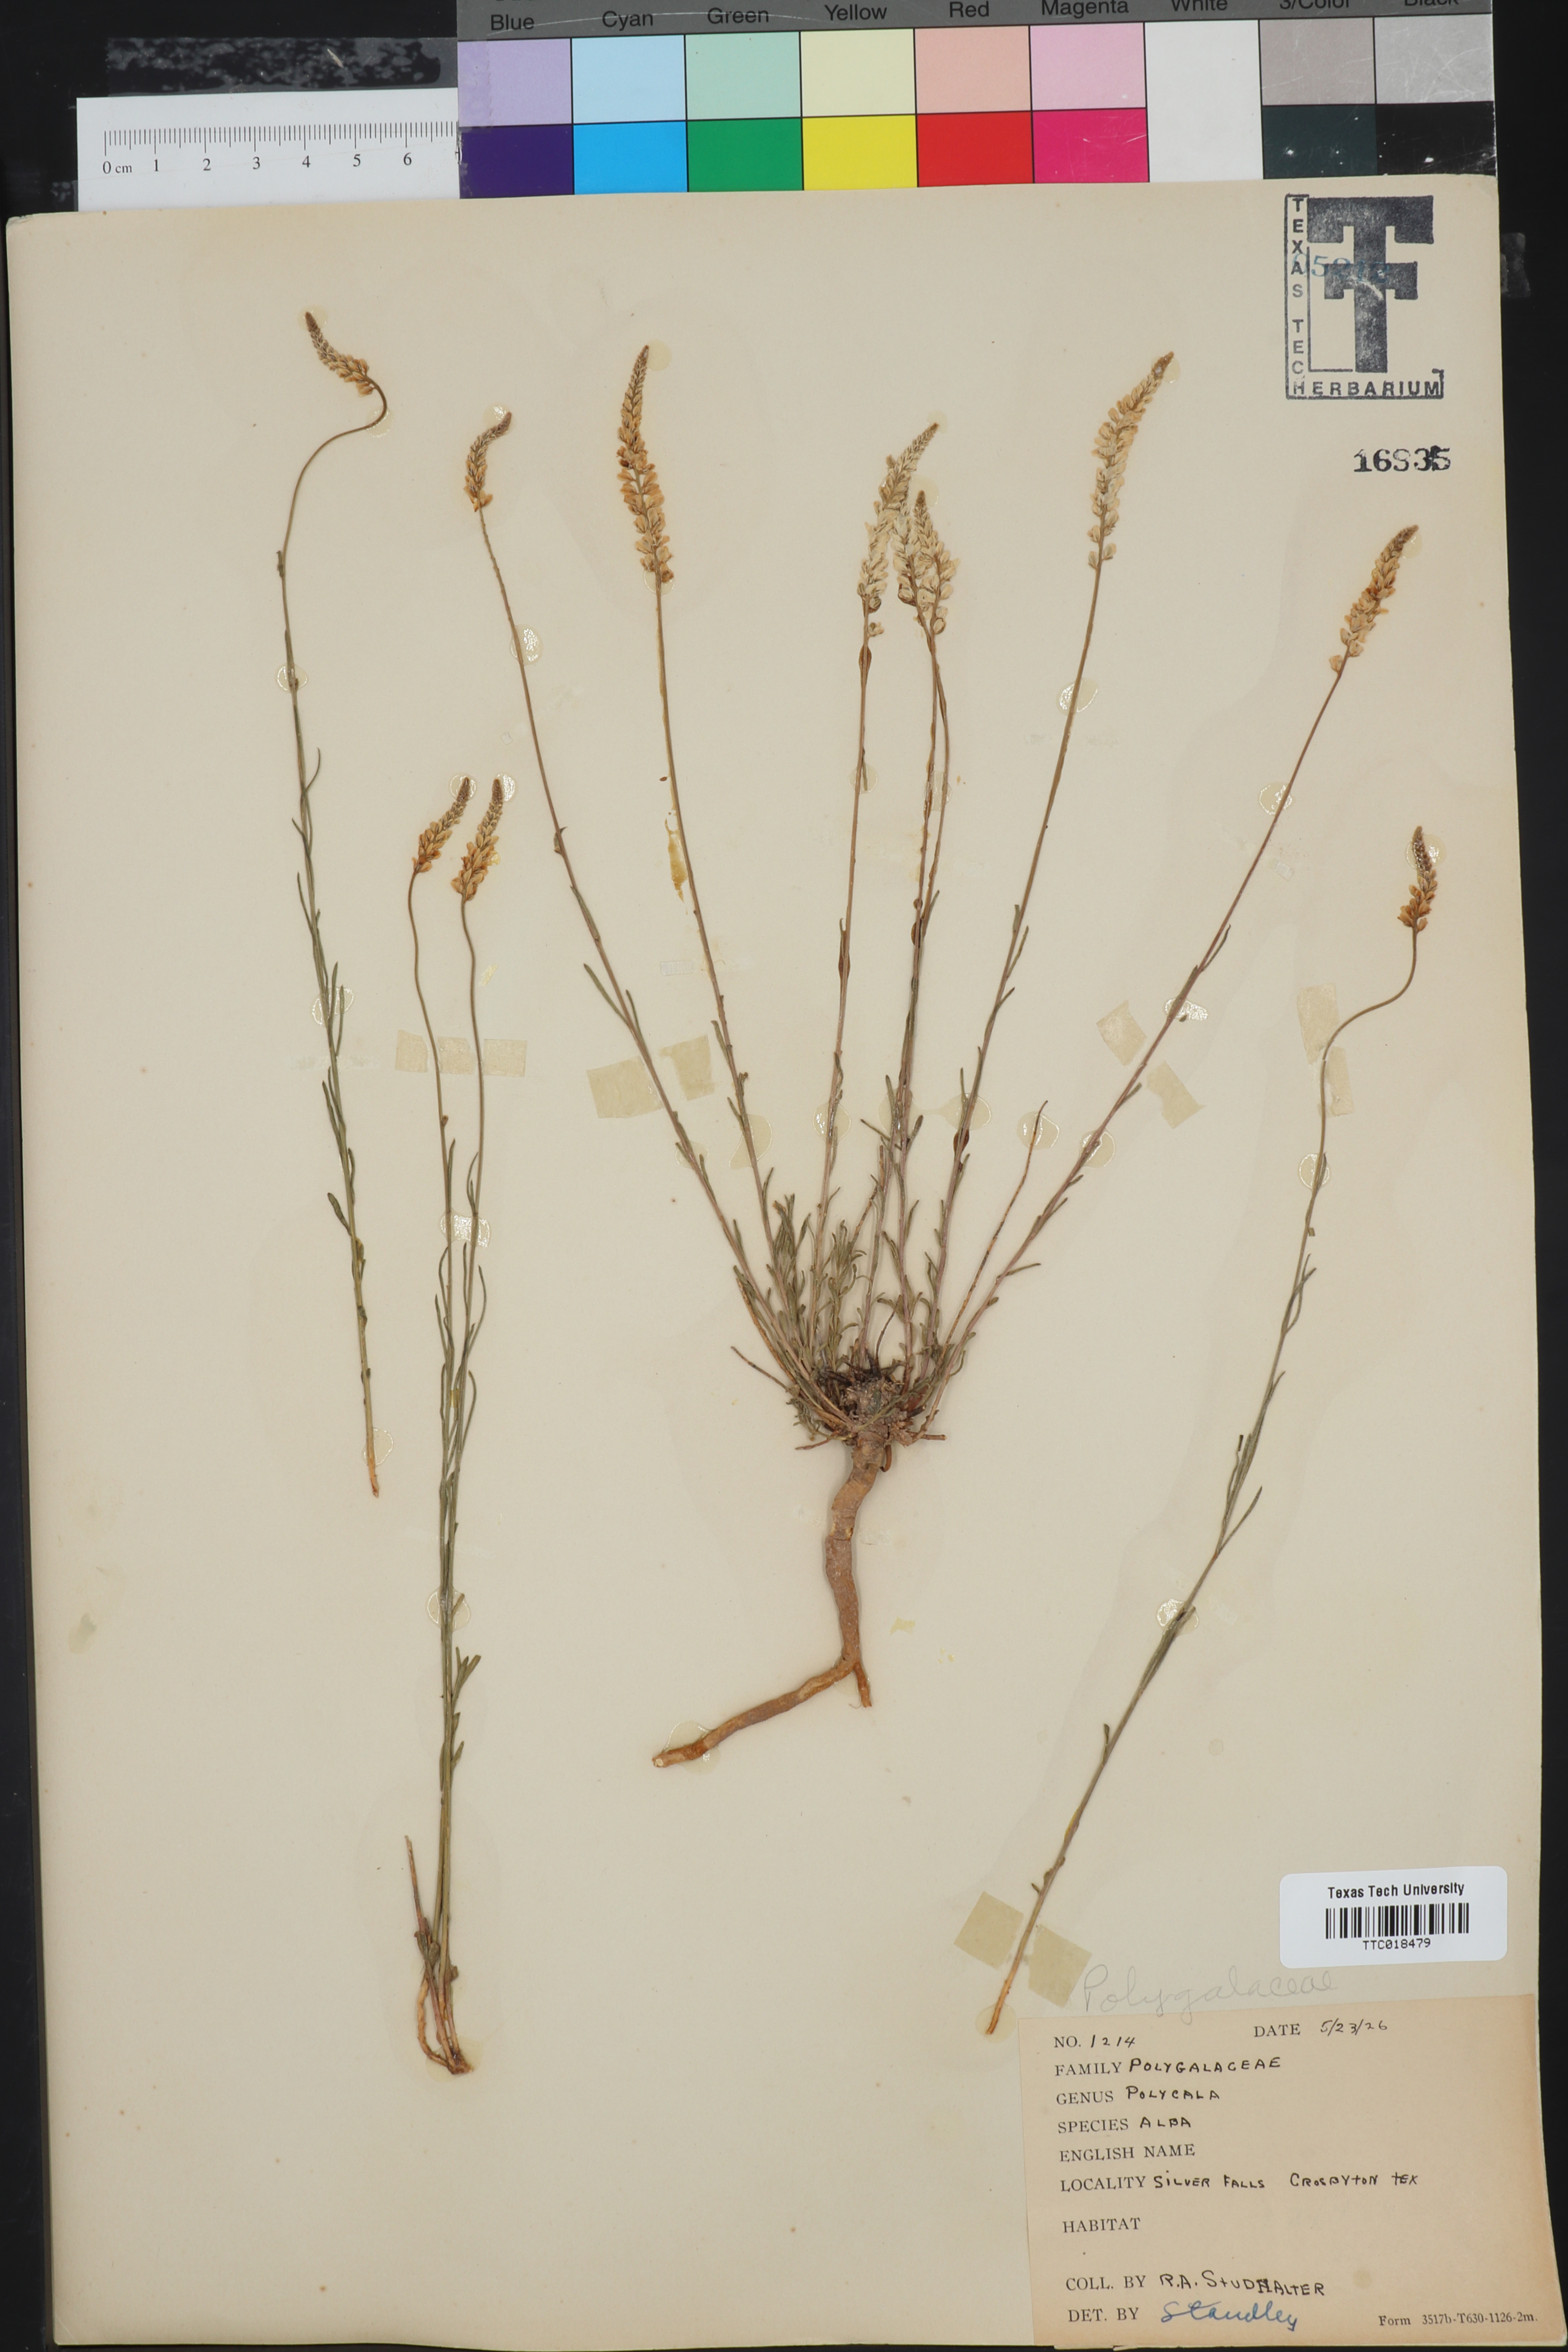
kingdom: Plantae
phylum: Tracheophyta
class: Magnoliopsida
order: Fabales
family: Polygalaceae
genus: Polygala
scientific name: Polygala alba
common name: White milkwort
